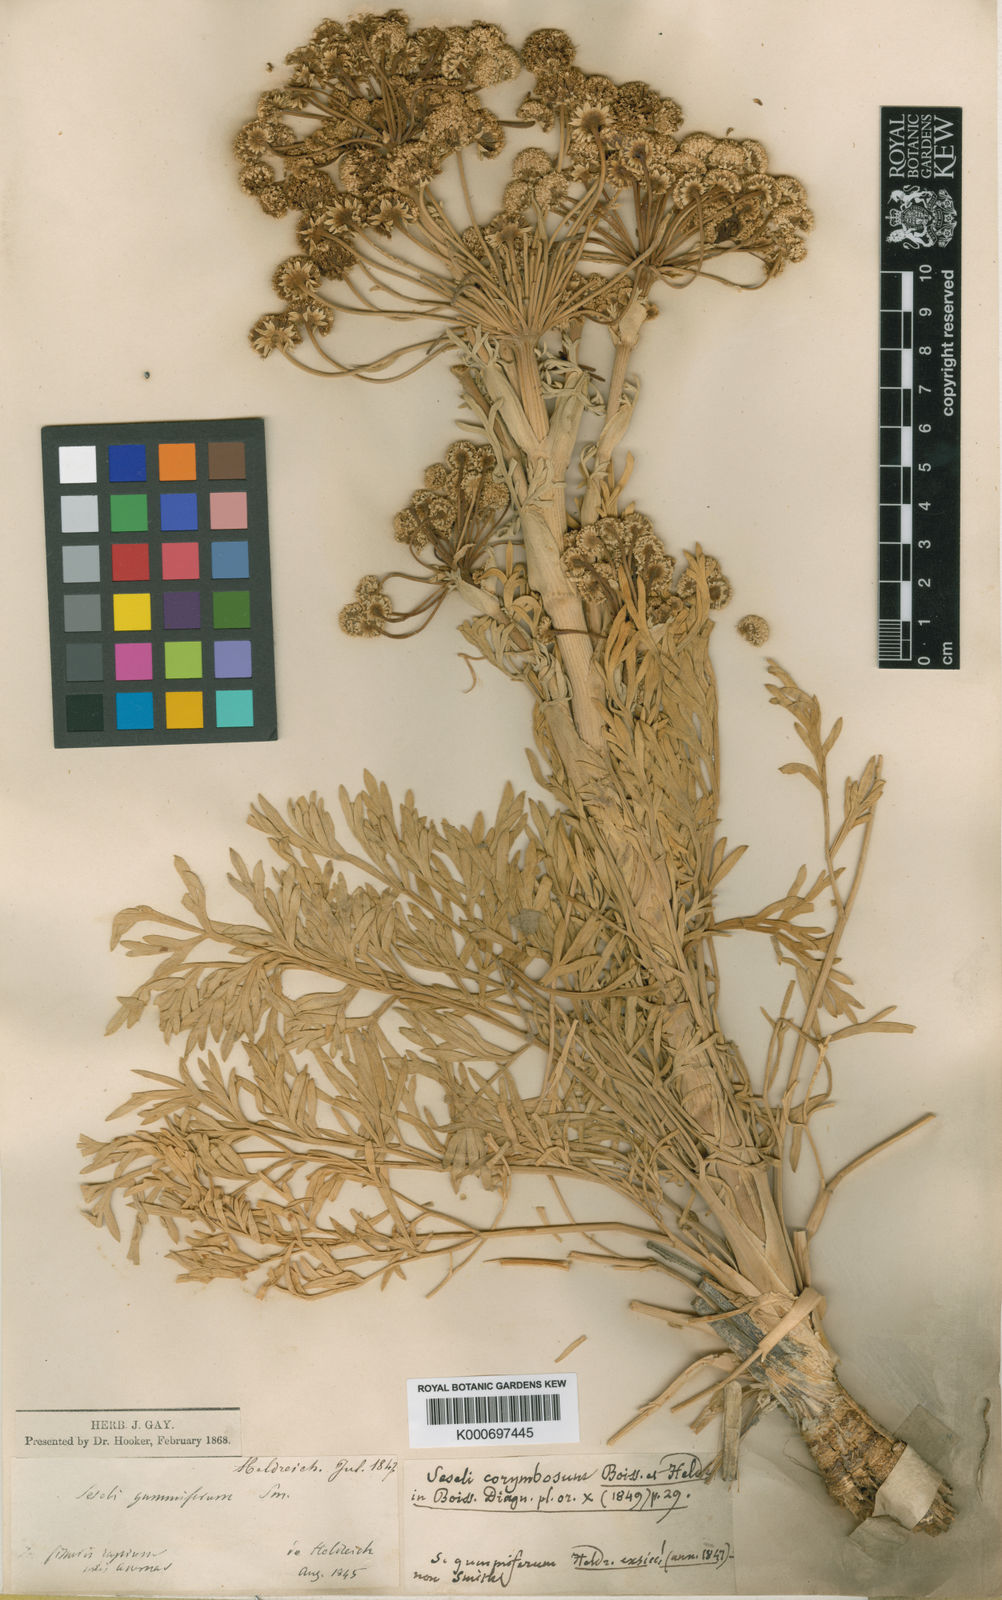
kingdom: Plantae
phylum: Tracheophyta
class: Magnoliopsida
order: Apiales
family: Apiaceae
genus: Seseli
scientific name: Seseli corymbosum
